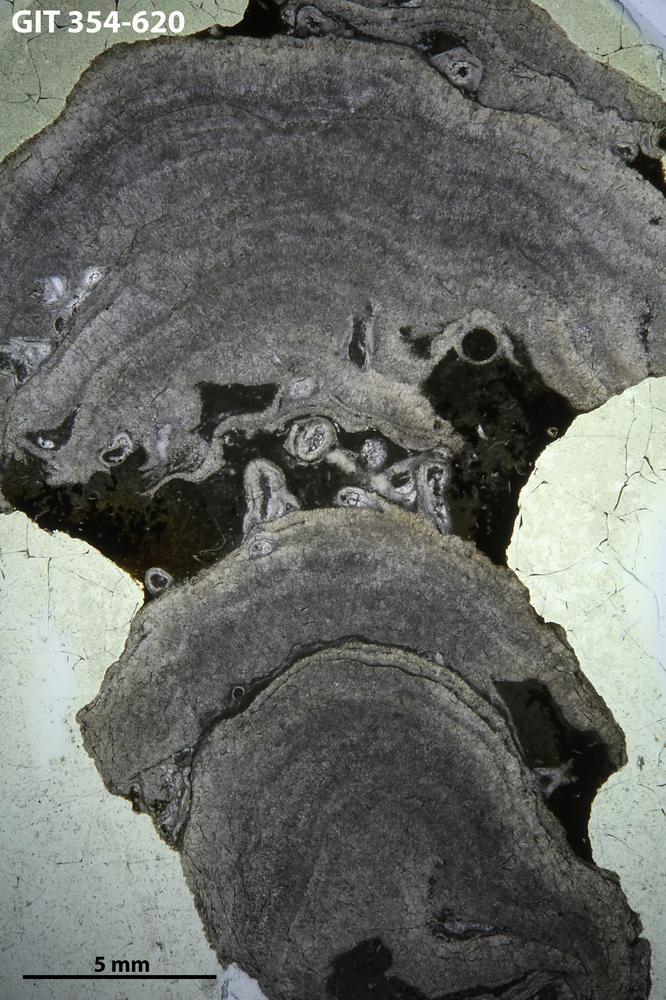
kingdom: Animalia
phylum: Porifera
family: Densastromatidae
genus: Densastroma
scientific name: Densastroma Actinostroma pexisum
